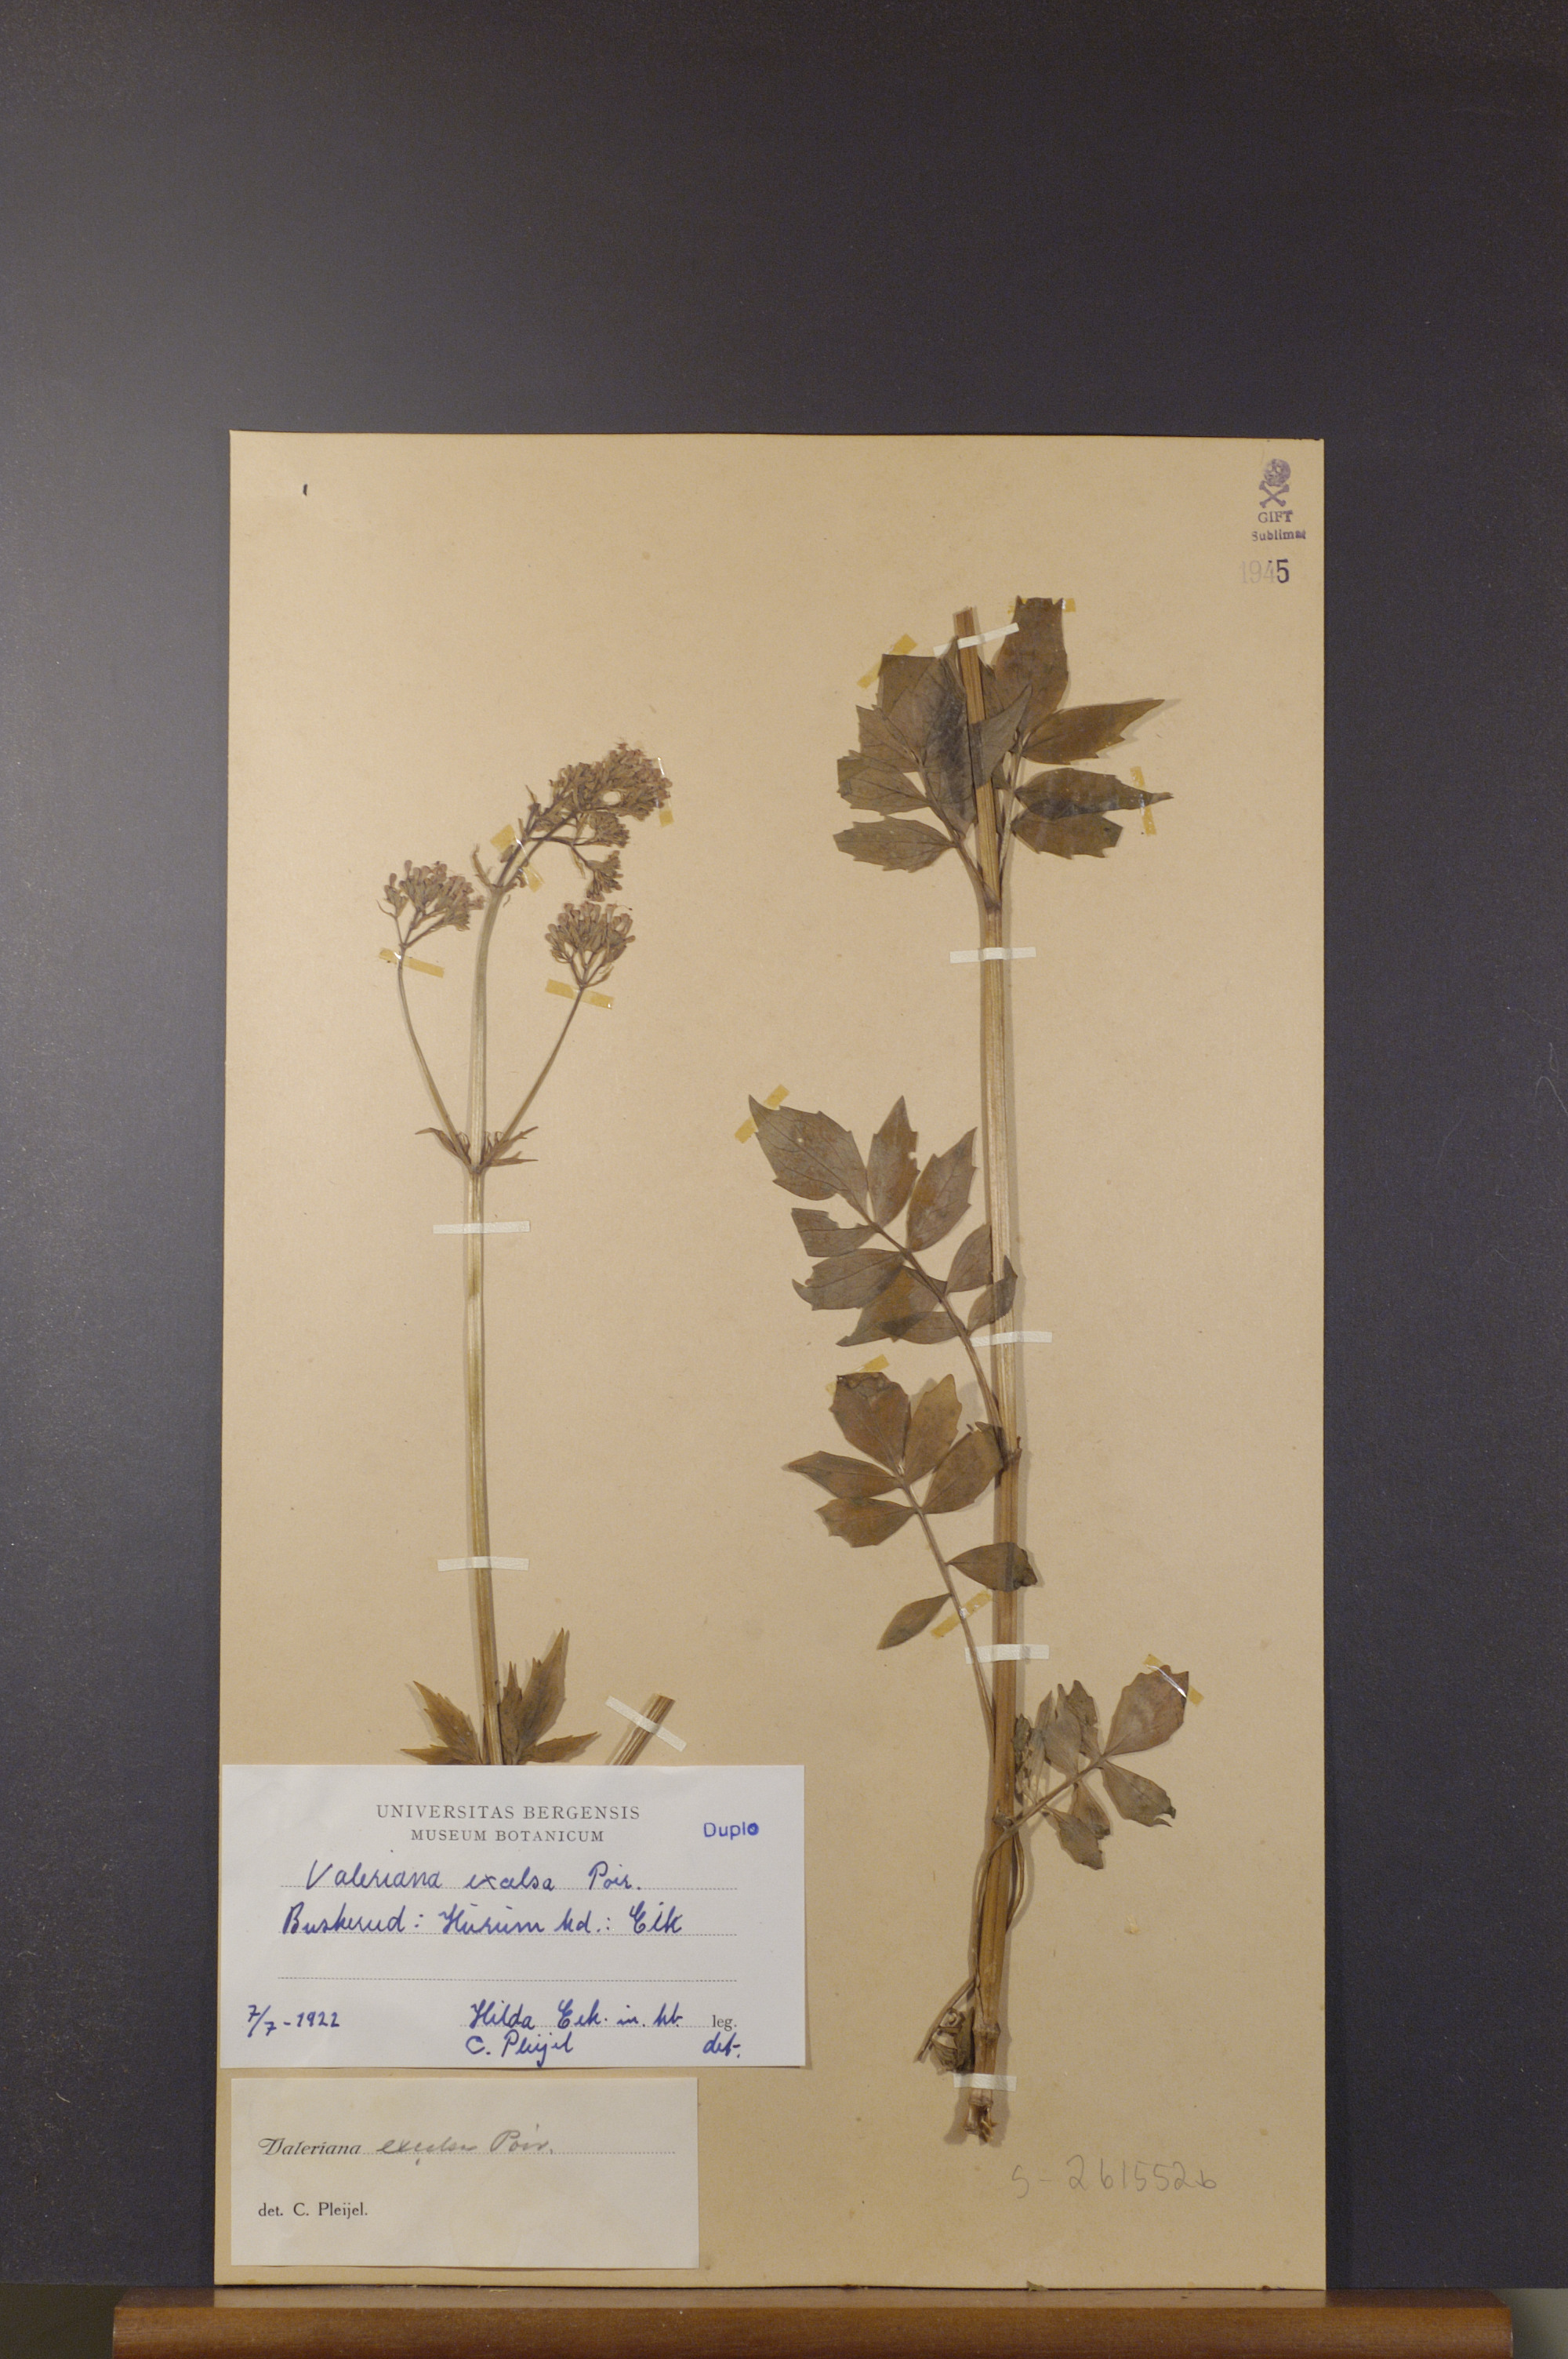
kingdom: Plantae
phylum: Tracheophyta
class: Magnoliopsida
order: Dipsacales
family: Caprifoliaceae
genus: Valeriana
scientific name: Valeriana sambucifolia
